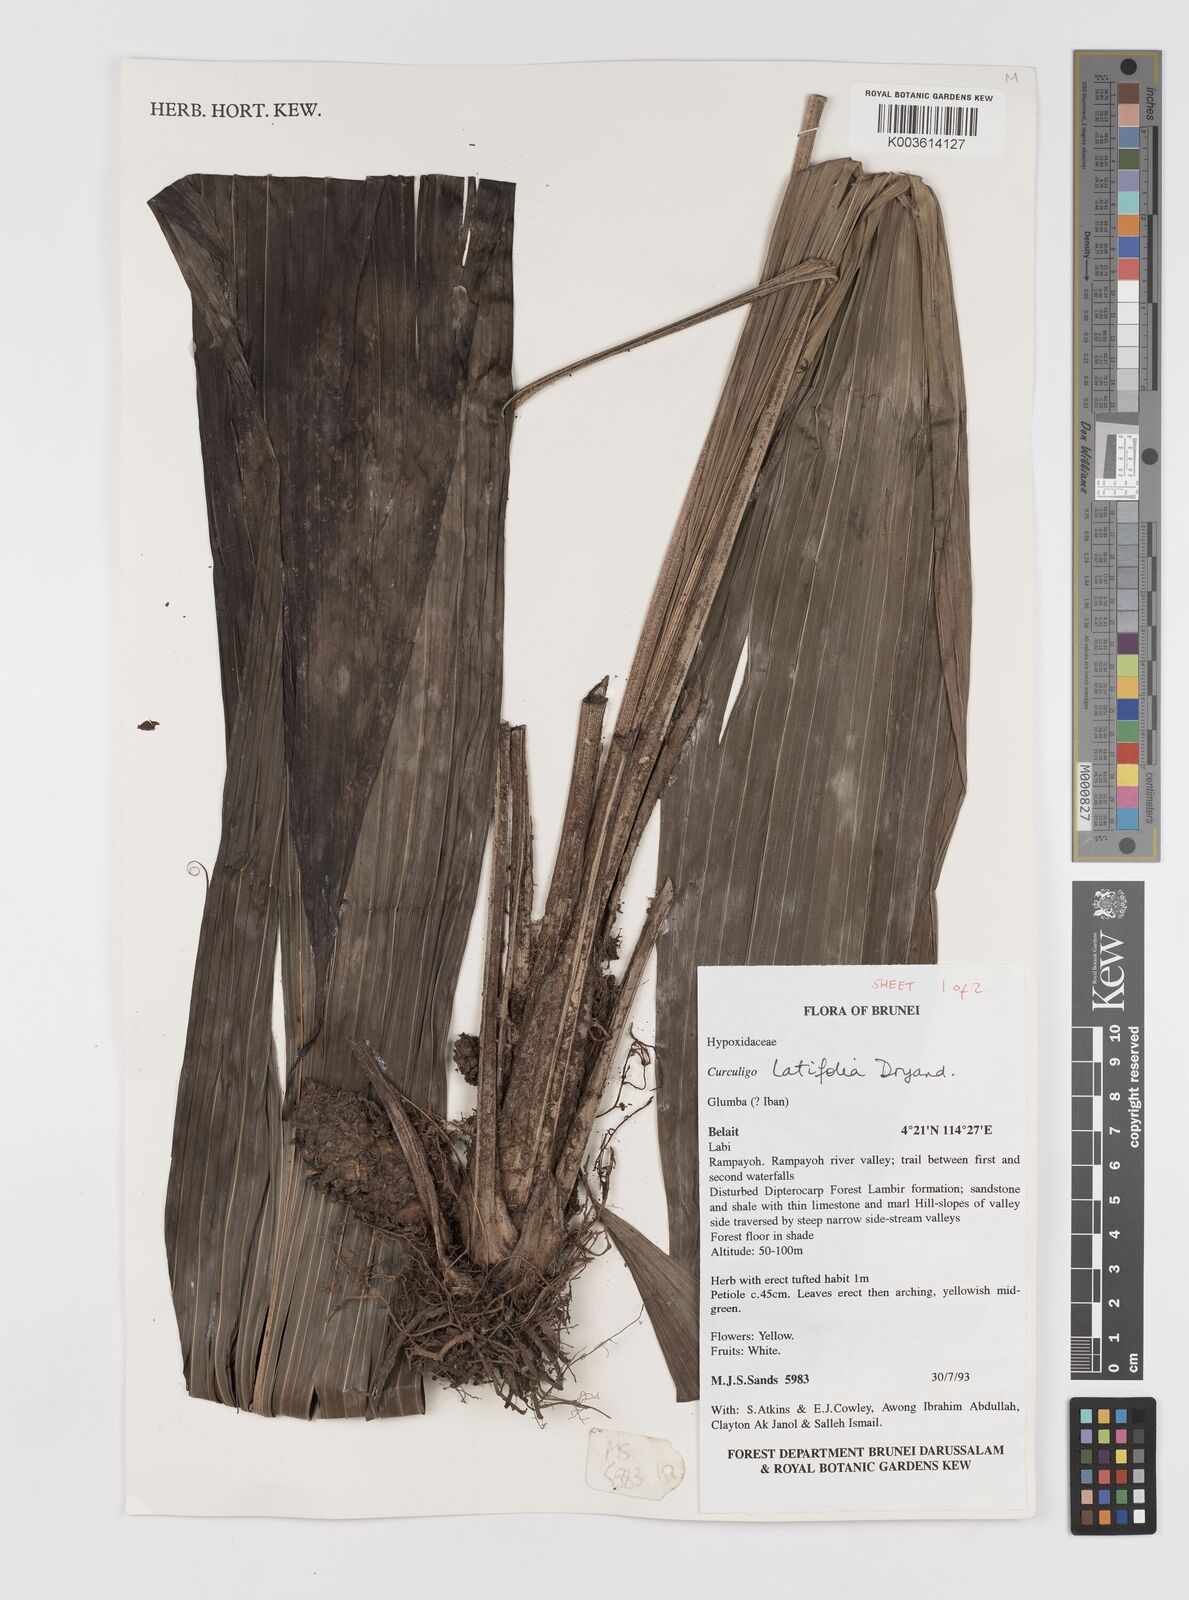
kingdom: Plantae
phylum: Tracheophyta
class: Liliopsida
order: Asparagales
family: Hypoxidaceae
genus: Curculigo
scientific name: Curculigo latifolia
